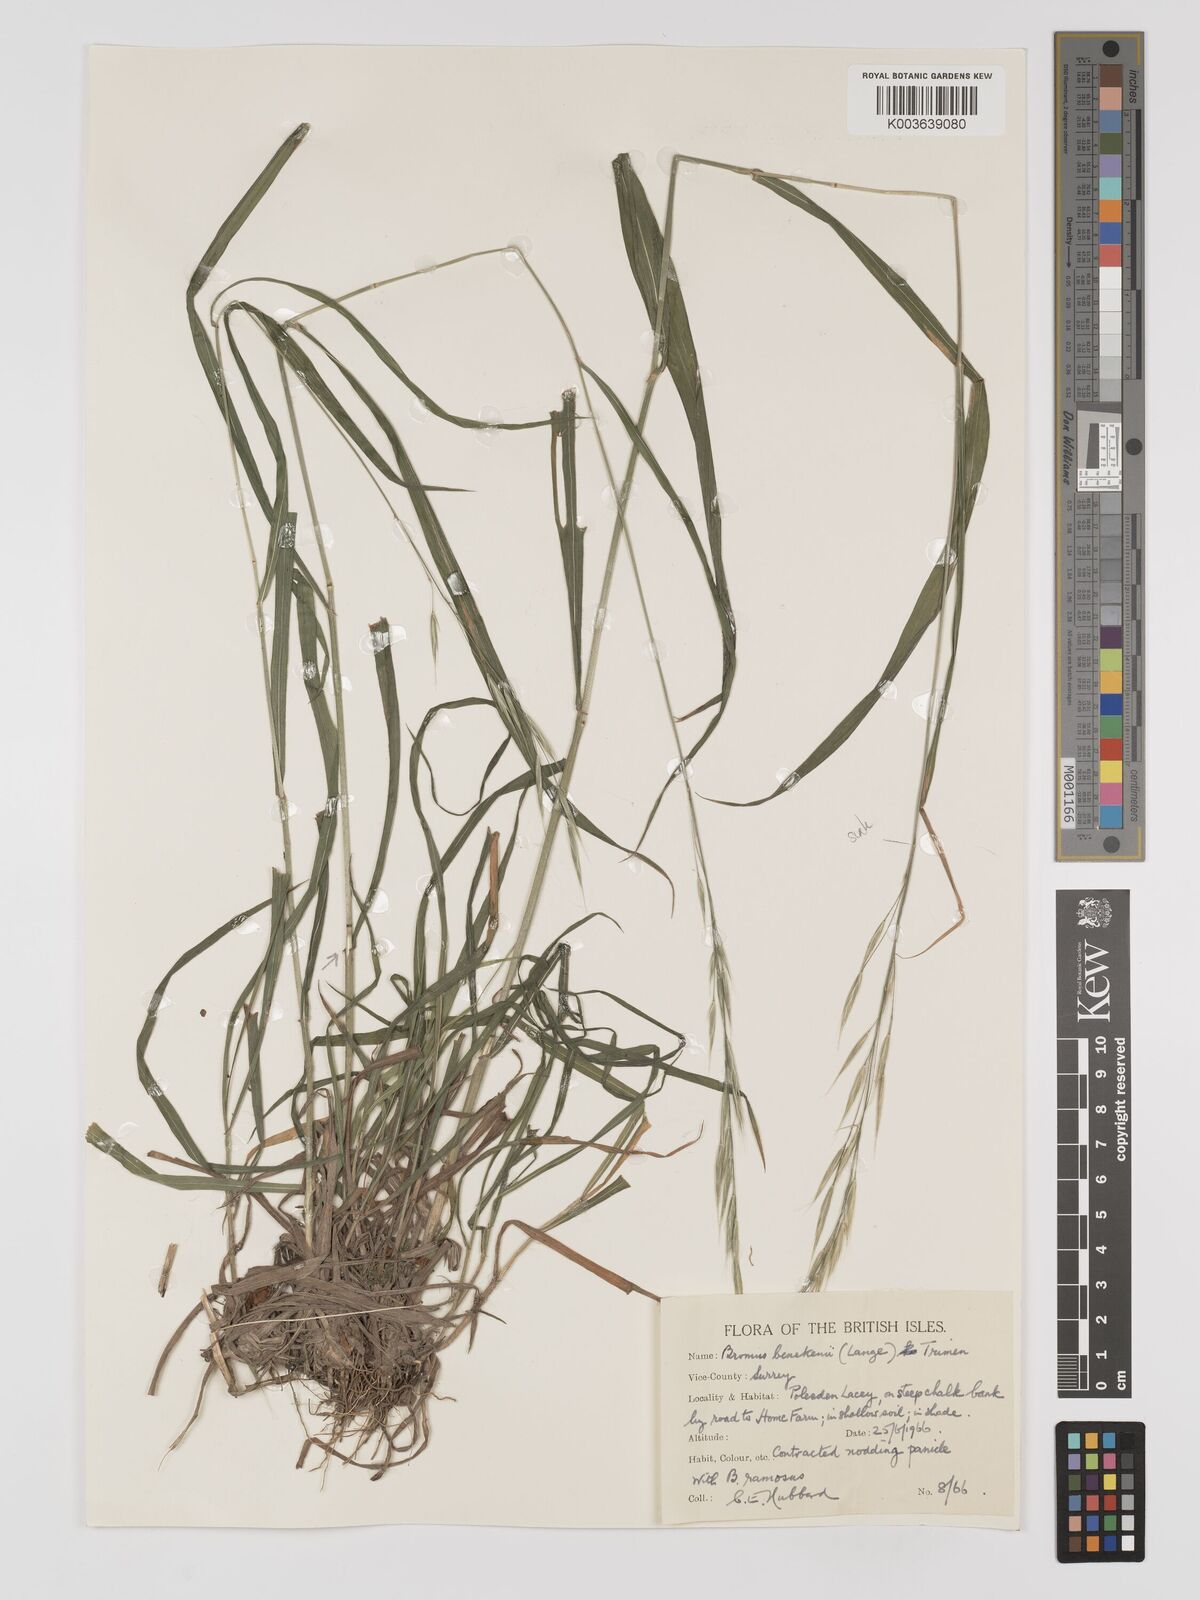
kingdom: Plantae
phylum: Tracheophyta
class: Liliopsida
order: Poales
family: Poaceae
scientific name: Poaceae
